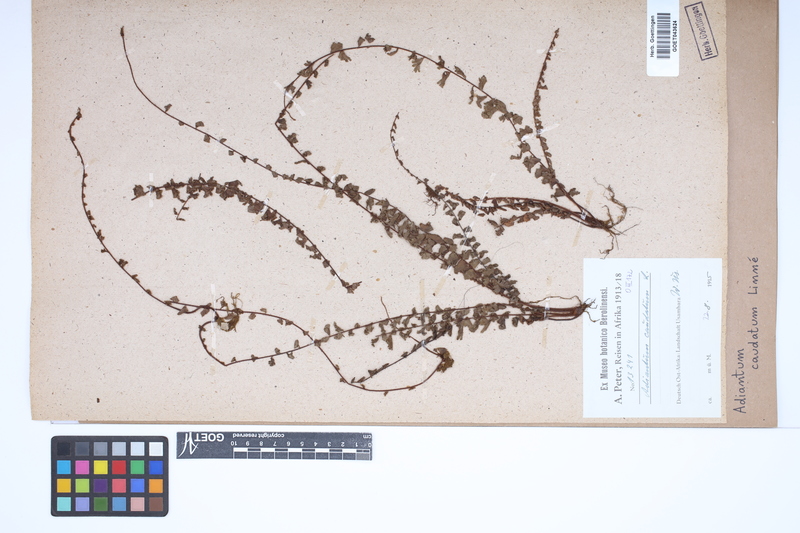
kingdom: Plantae
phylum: Tracheophyta
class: Polypodiopsida
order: Polypodiales
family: Pteridaceae
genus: Adiantum
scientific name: Adiantum caudatum
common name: Tailed maidenhair
